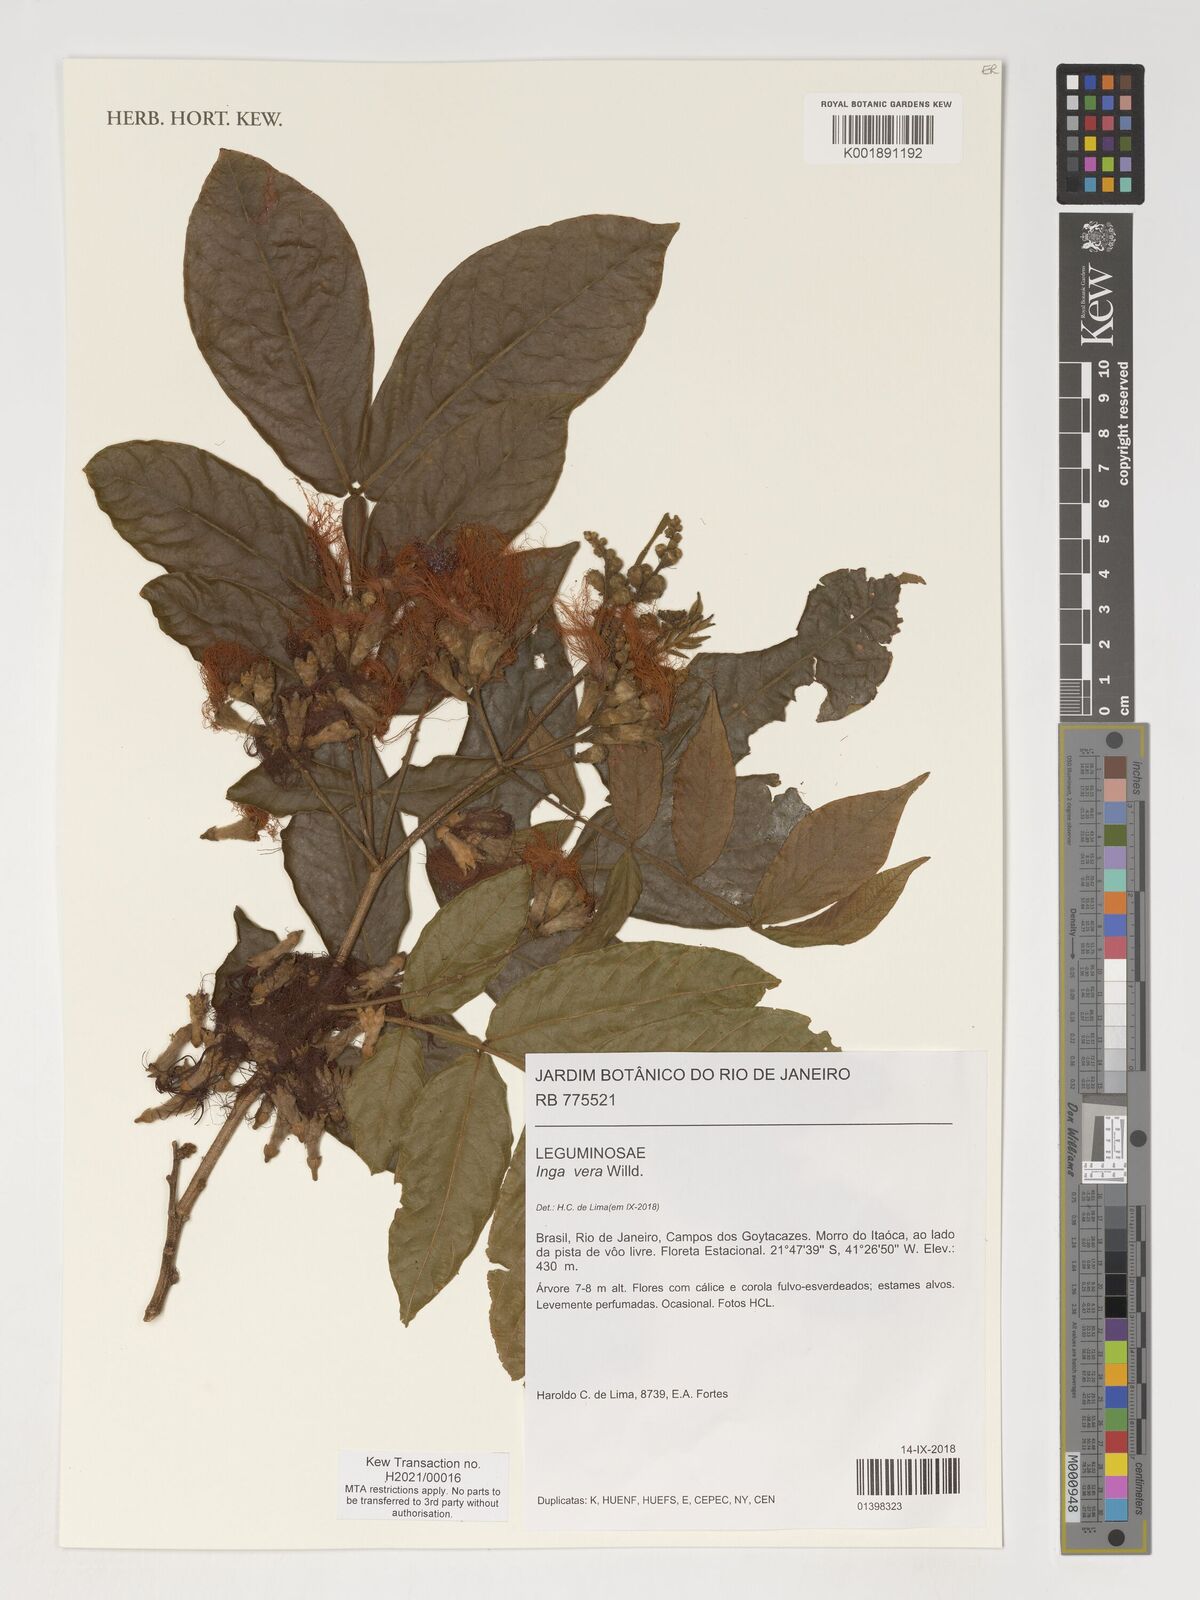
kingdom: Plantae
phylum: Tracheophyta
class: Magnoliopsida
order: Fabales
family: Fabaceae
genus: Inga
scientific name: Inga vera
